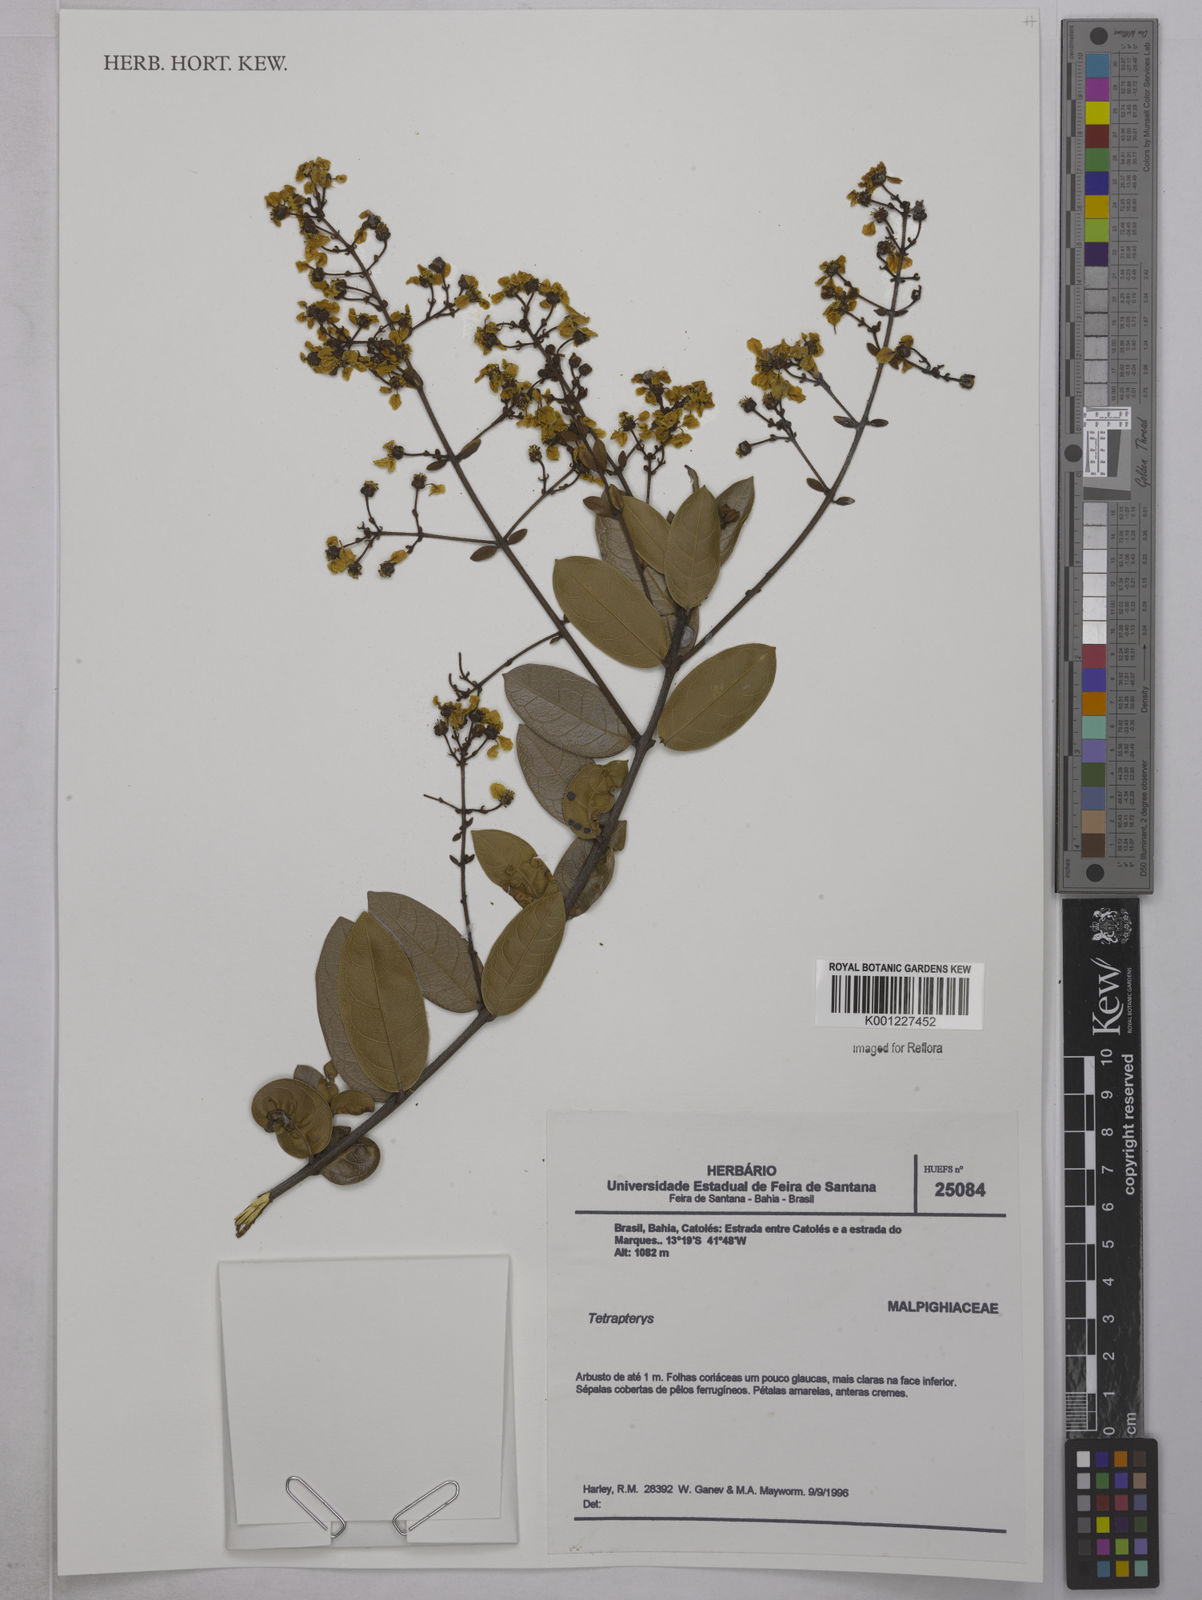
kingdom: Plantae
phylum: Tracheophyta
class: Magnoliopsida
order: Malpighiales
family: Malpighiaceae
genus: Tetrapterys
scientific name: Tetrapterys
